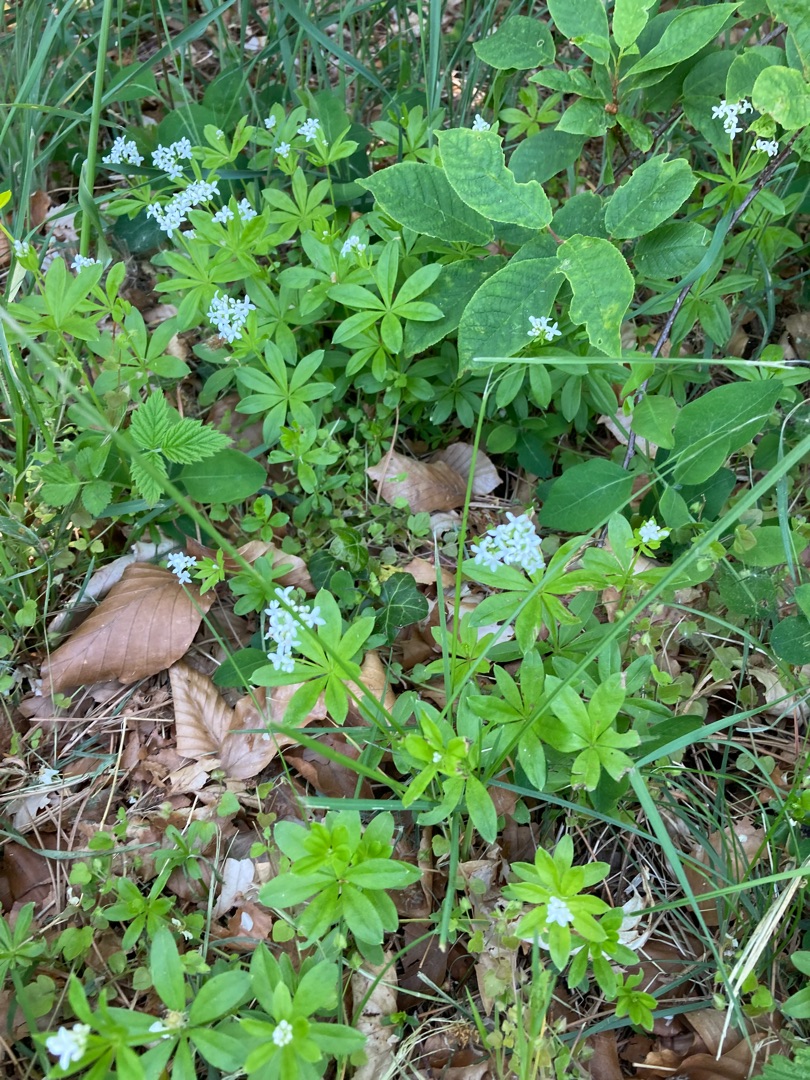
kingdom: Plantae
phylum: Tracheophyta
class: Magnoliopsida
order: Gentianales
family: Rubiaceae
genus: Galium
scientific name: Galium odoratum
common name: Skovmærke
